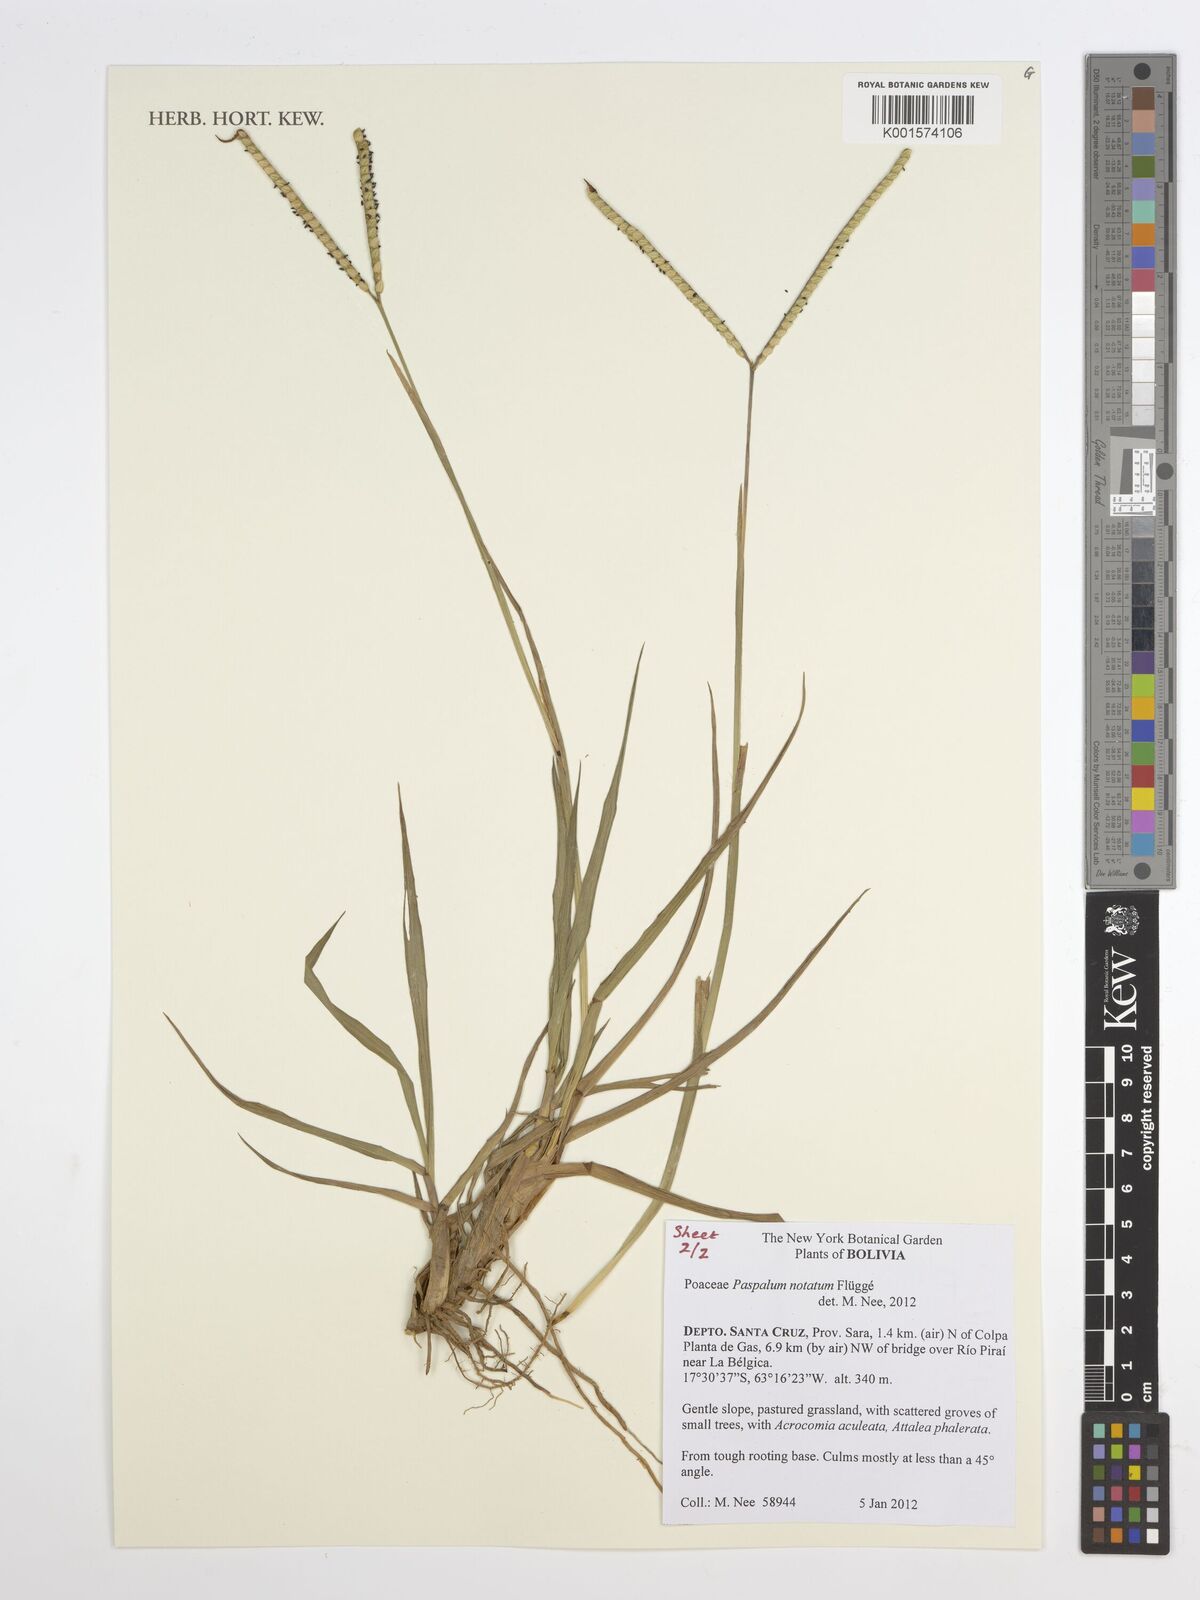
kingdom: Plantae
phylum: Tracheophyta
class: Liliopsida
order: Poales
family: Poaceae
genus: Paspalum
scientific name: Paspalum notatum
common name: Bahiagrass
